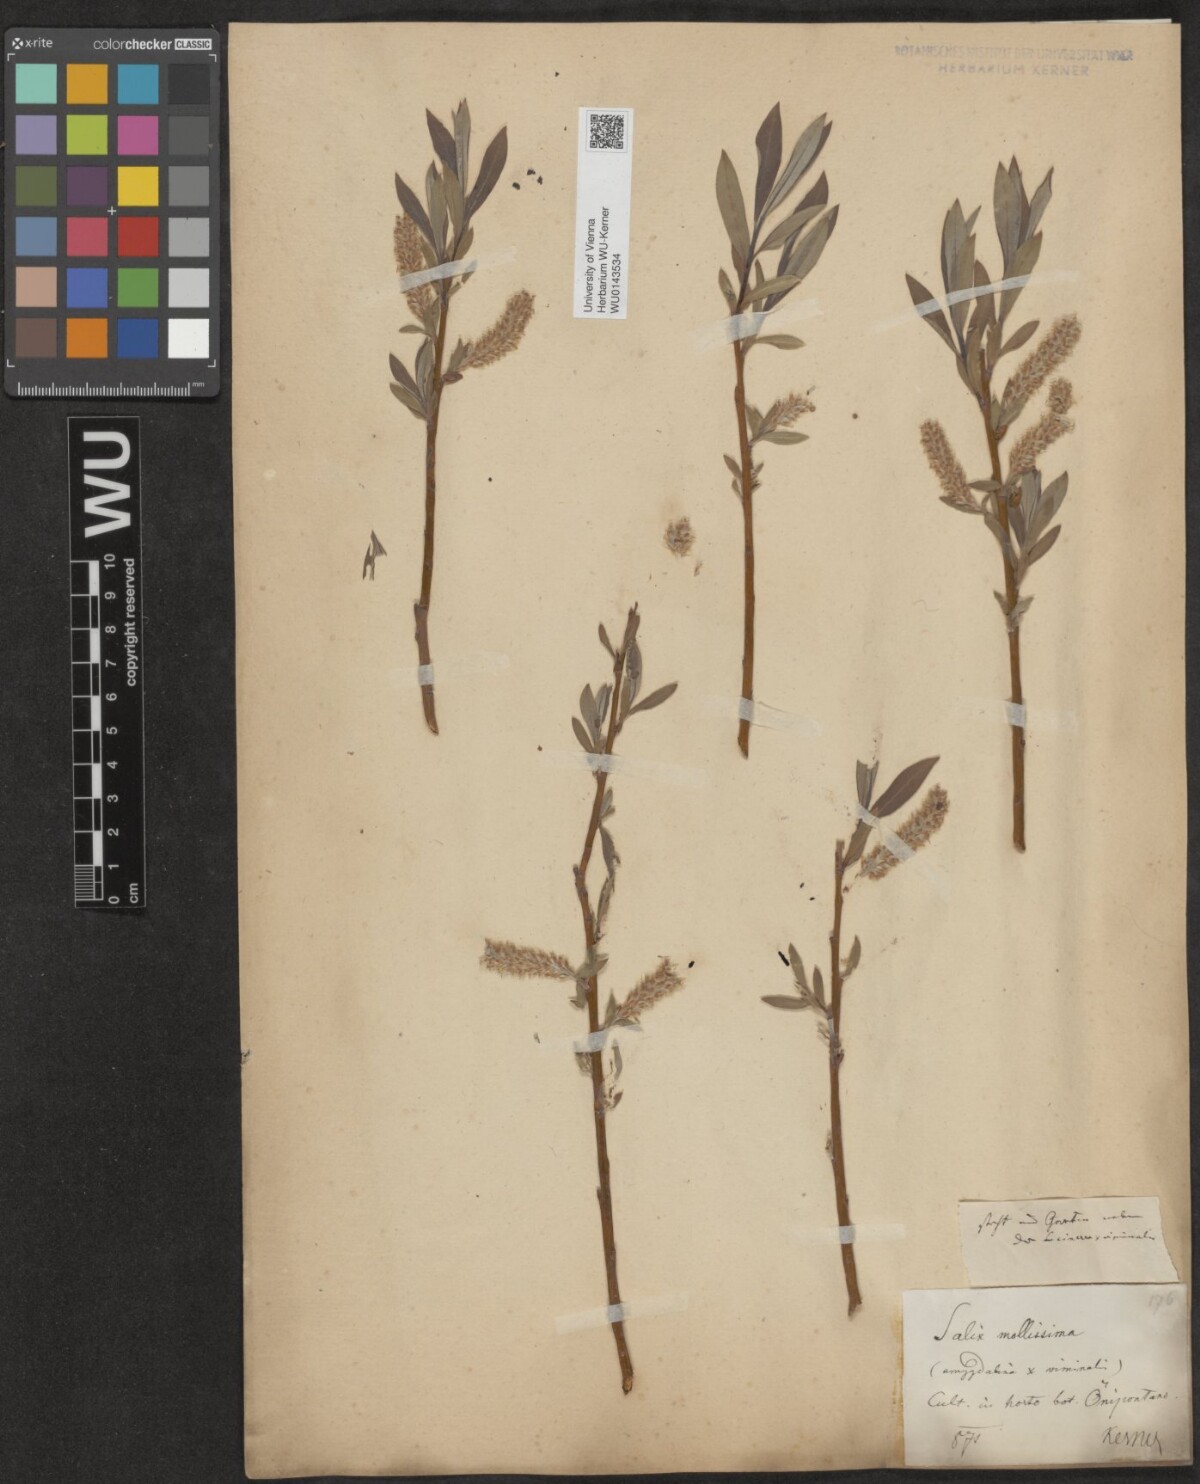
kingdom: Plantae
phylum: Tracheophyta
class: Magnoliopsida
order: Malpighiales
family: Salicaceae
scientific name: Salicaceae
